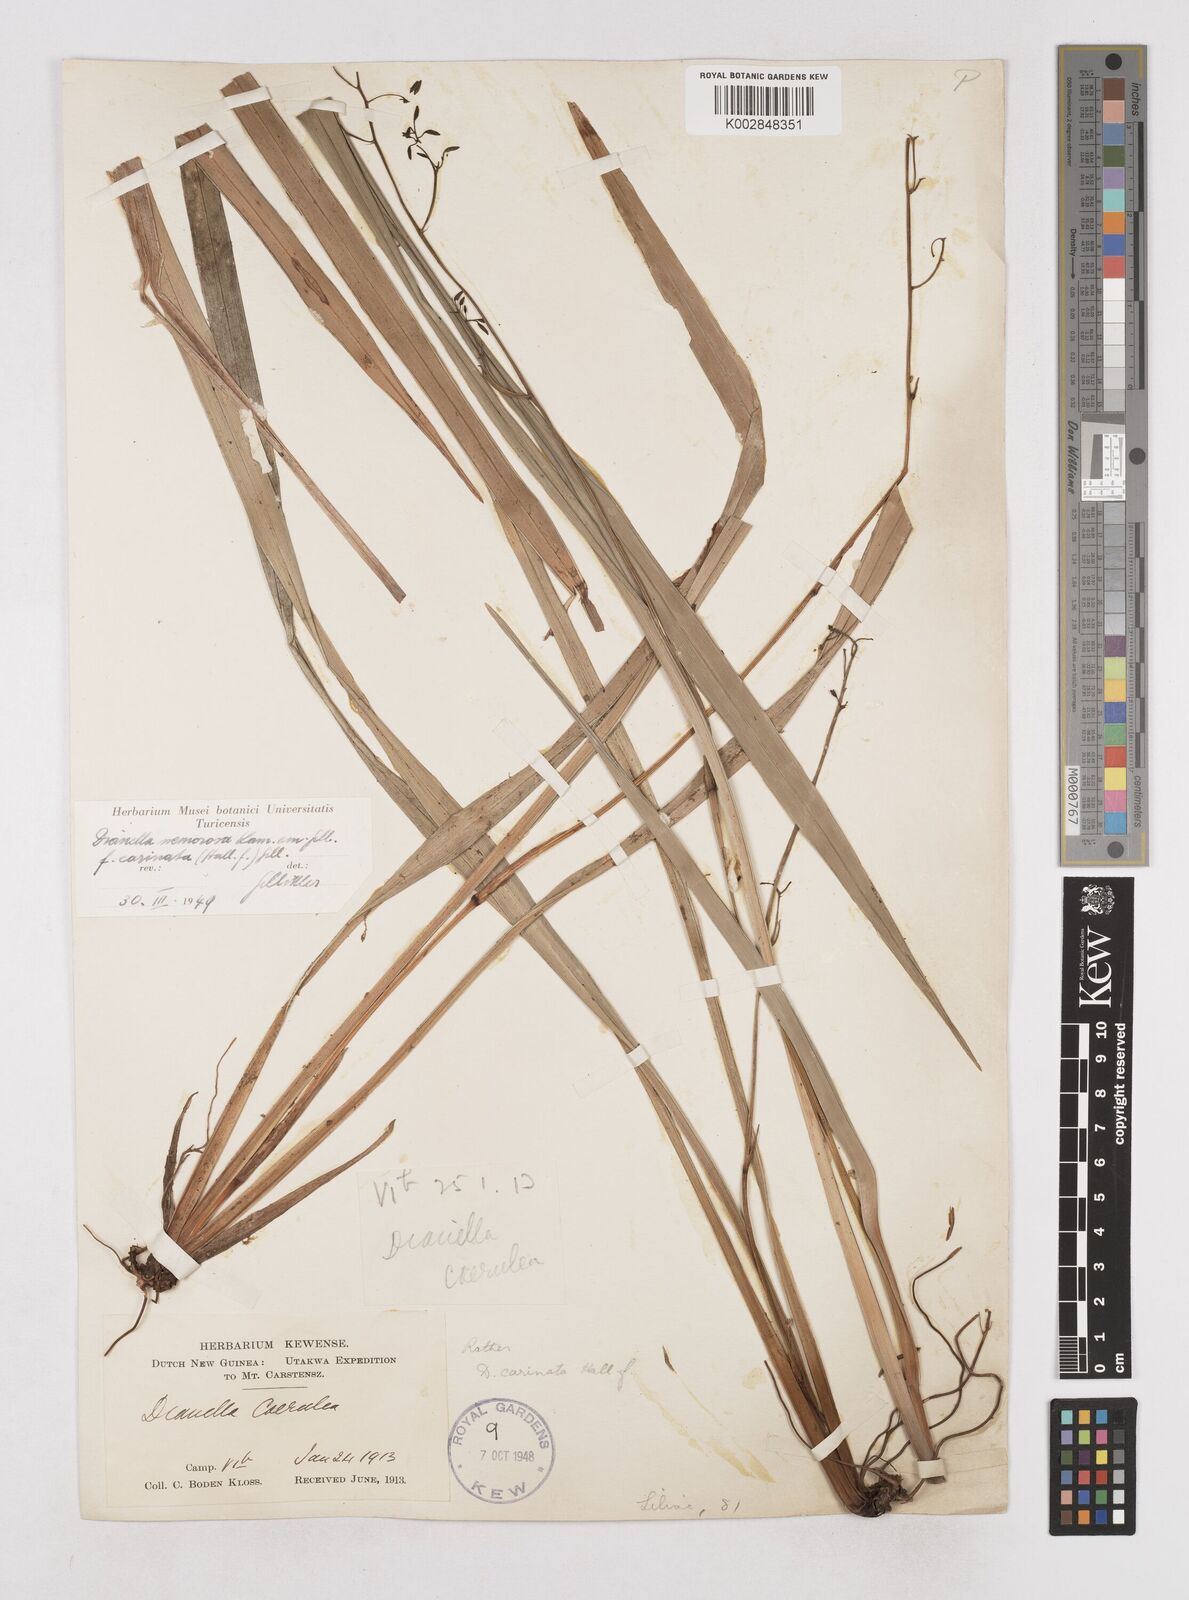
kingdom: Plantae
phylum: Tracheophyta
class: Liliopsida
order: Asparagales
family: Asphodelaceae
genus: Dianella
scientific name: Dianella ensifolia
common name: New zealand lilyplant
